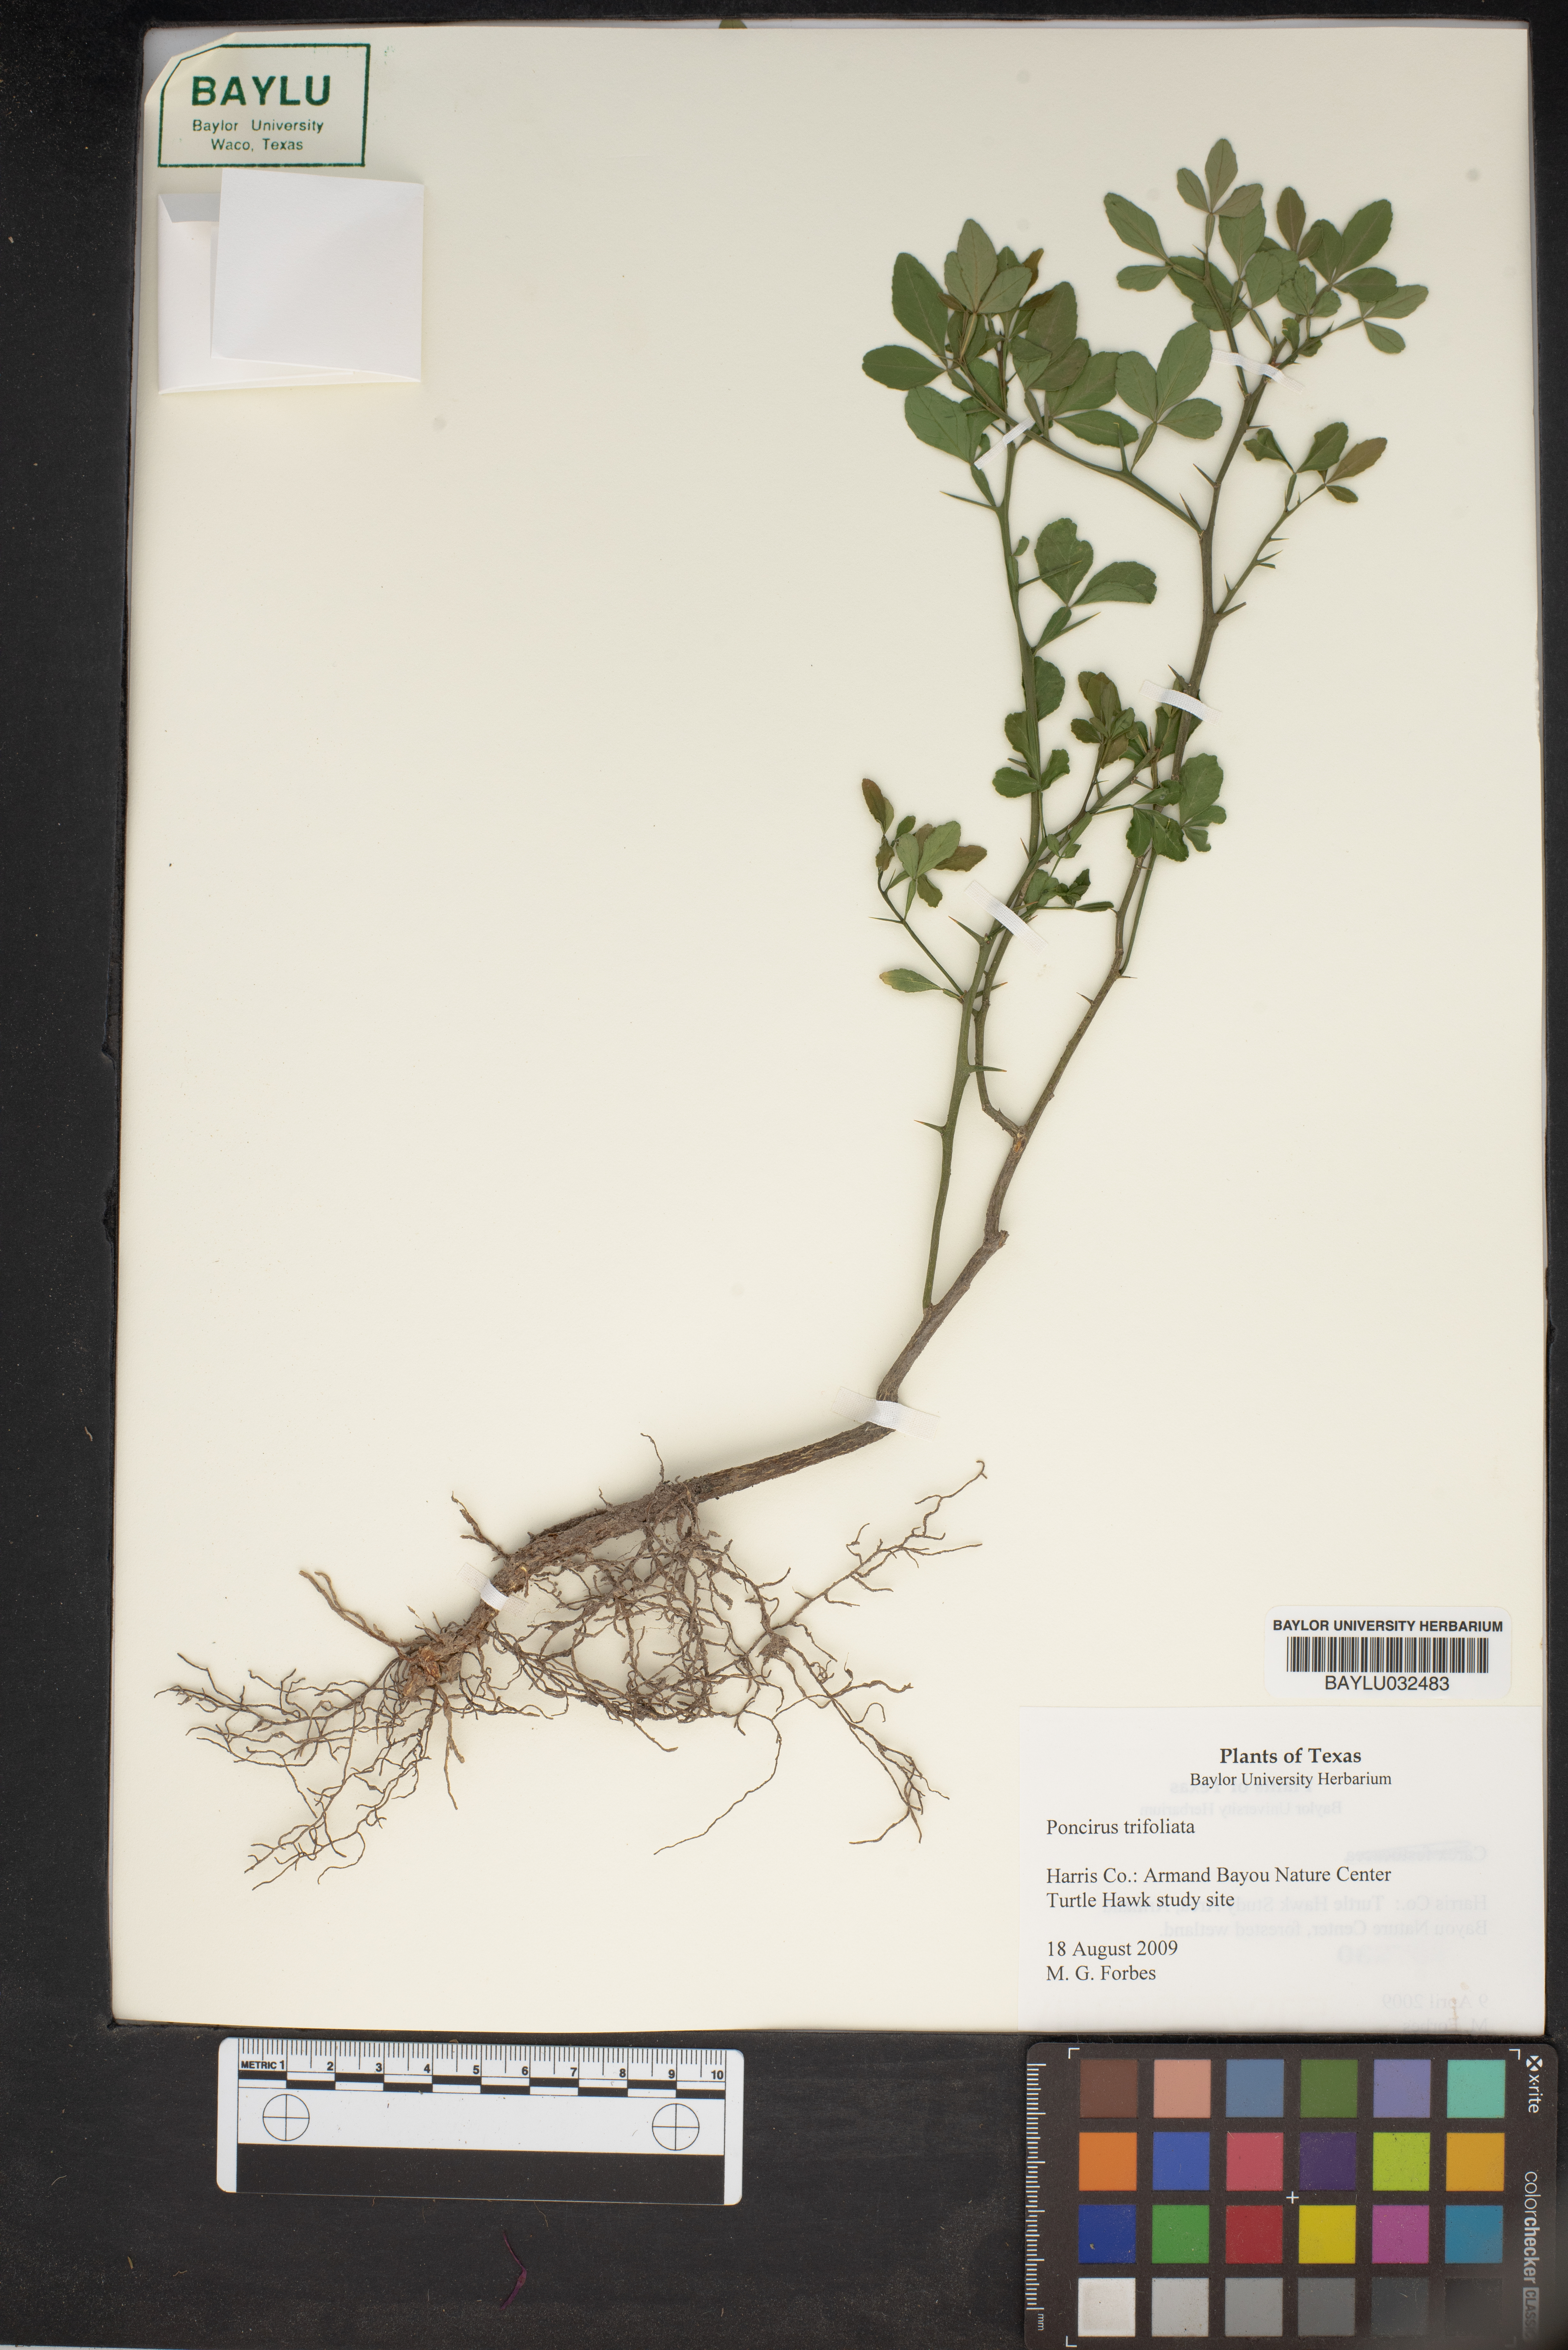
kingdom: Plantae
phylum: Tracheophyta
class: Magnoliopsida
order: Sapindales
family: Rutaceae
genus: Citrus
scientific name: Citrus trifoliata
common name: Japanese bitter-orange
